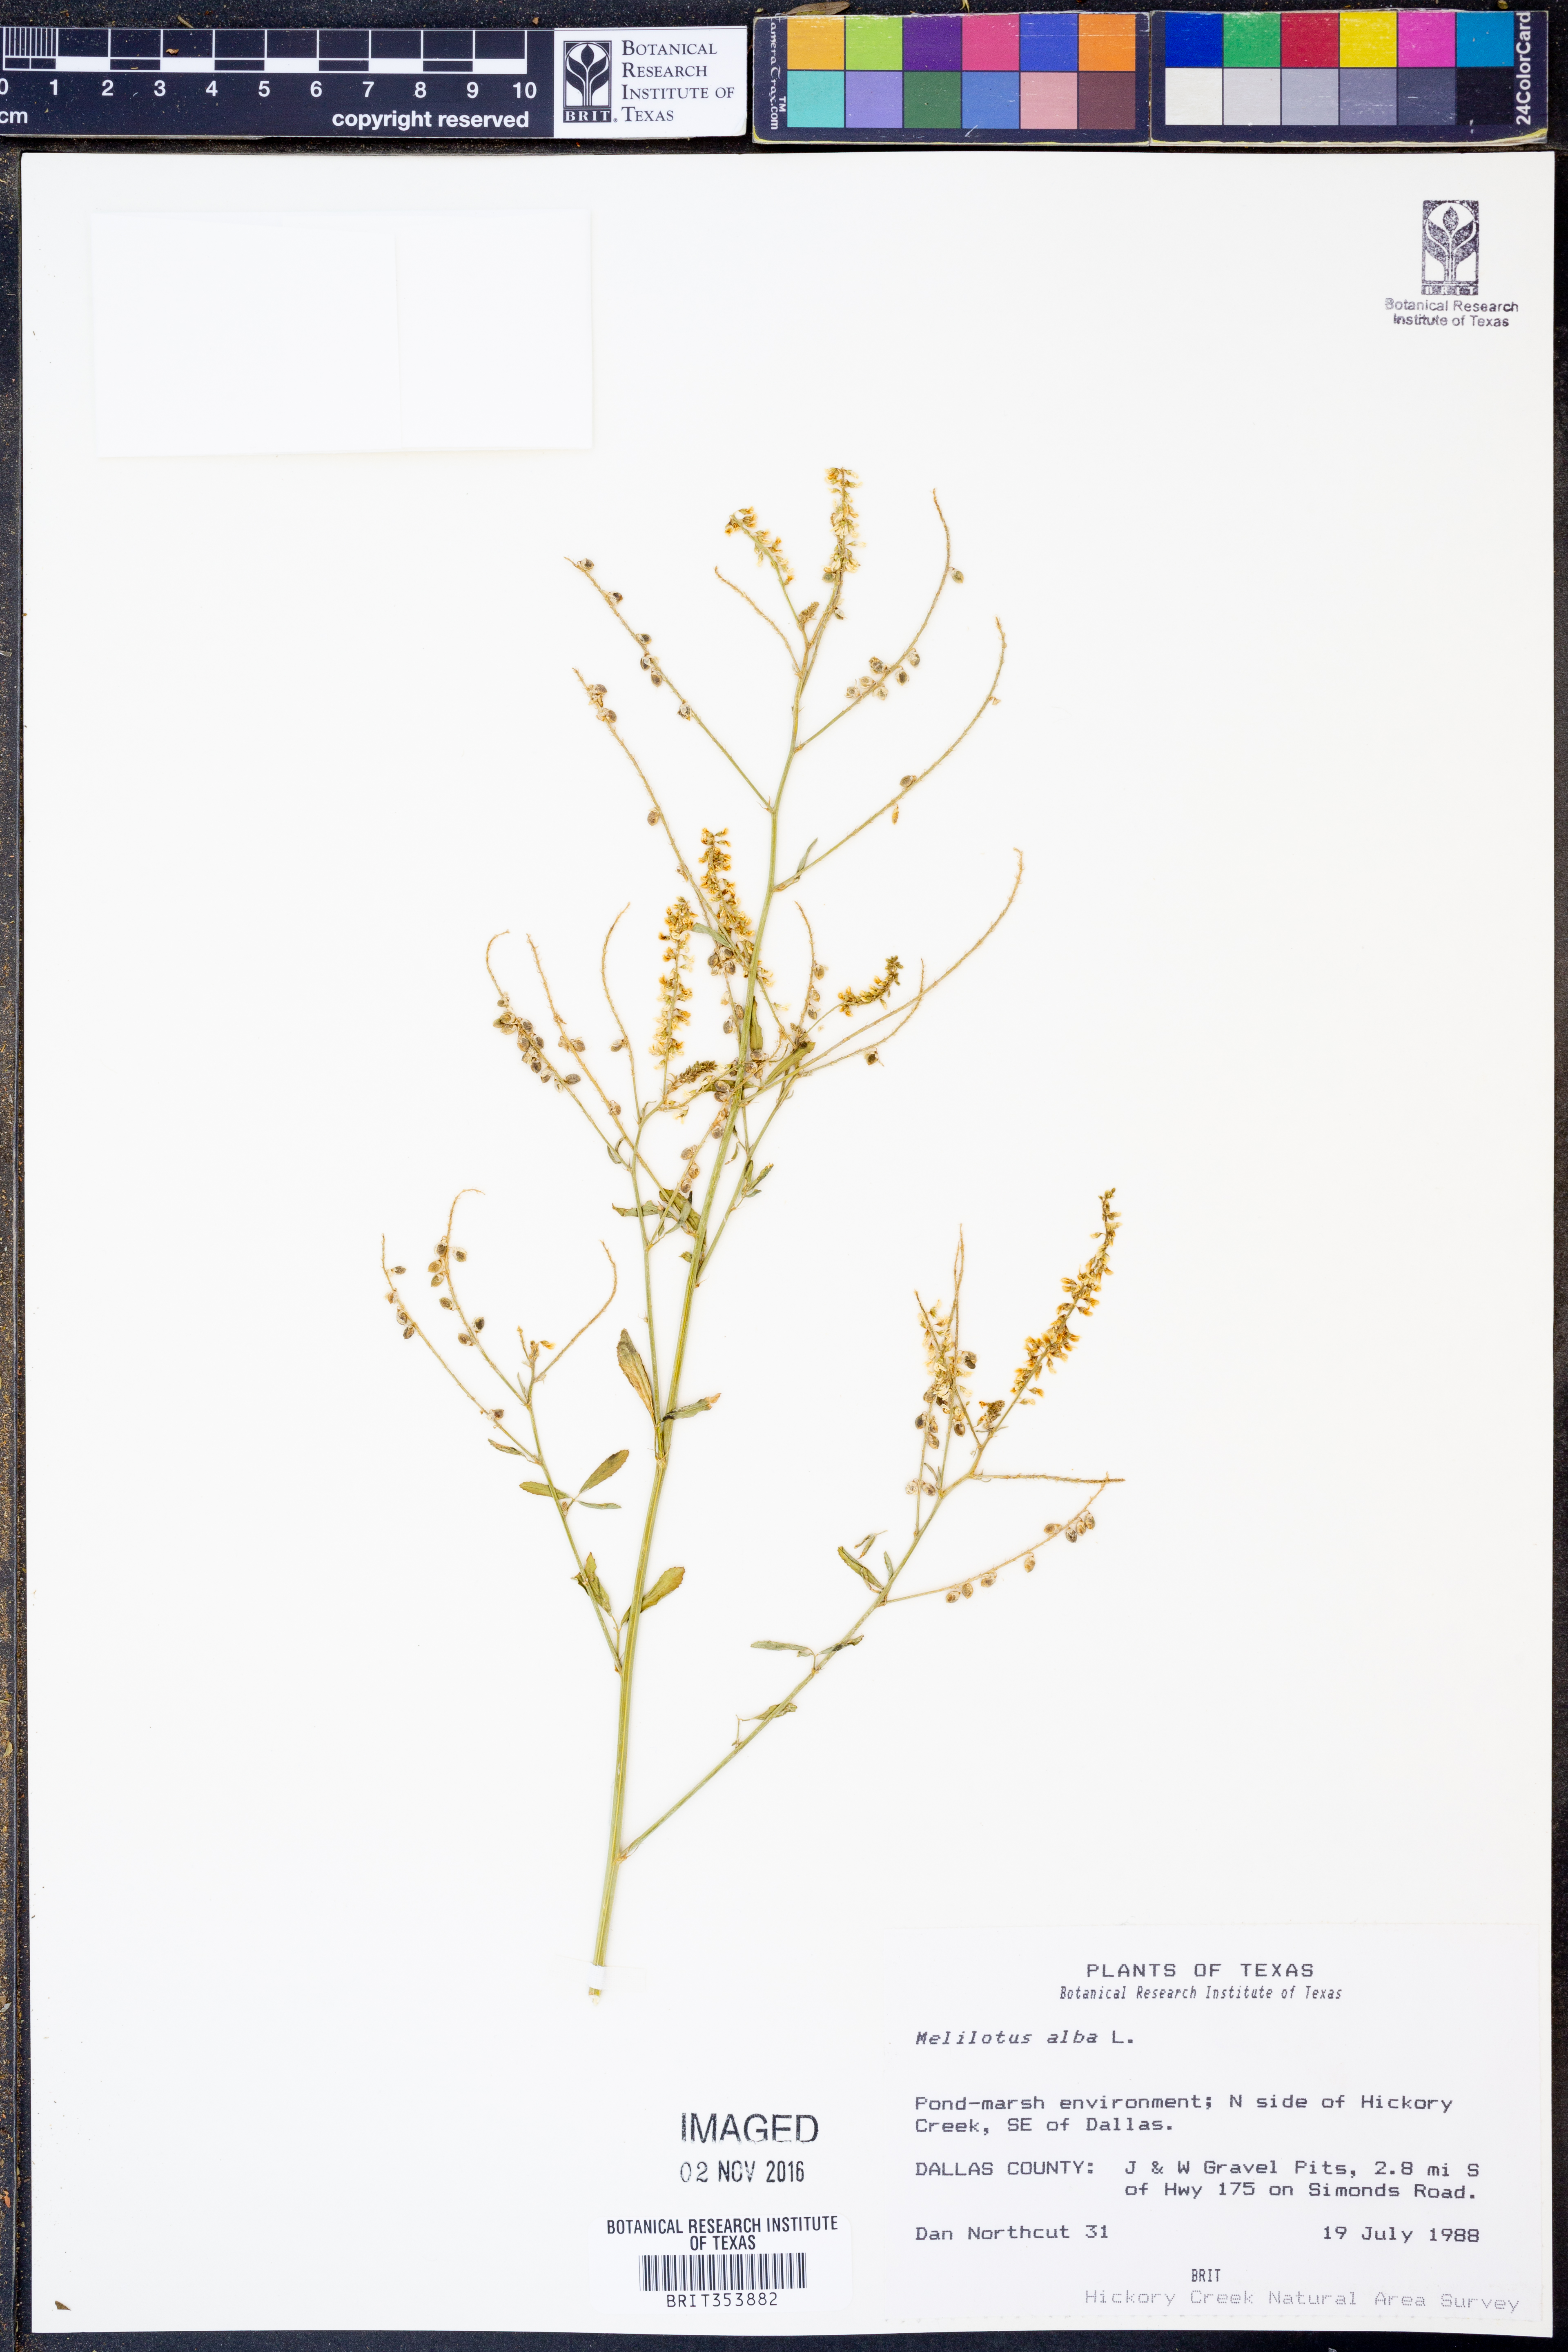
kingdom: Plantae
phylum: Tracheophyta
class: Magnoliopsida
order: Fabales
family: Fabaceae
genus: Melilotus
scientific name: Melilotus albus
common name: White melilot
